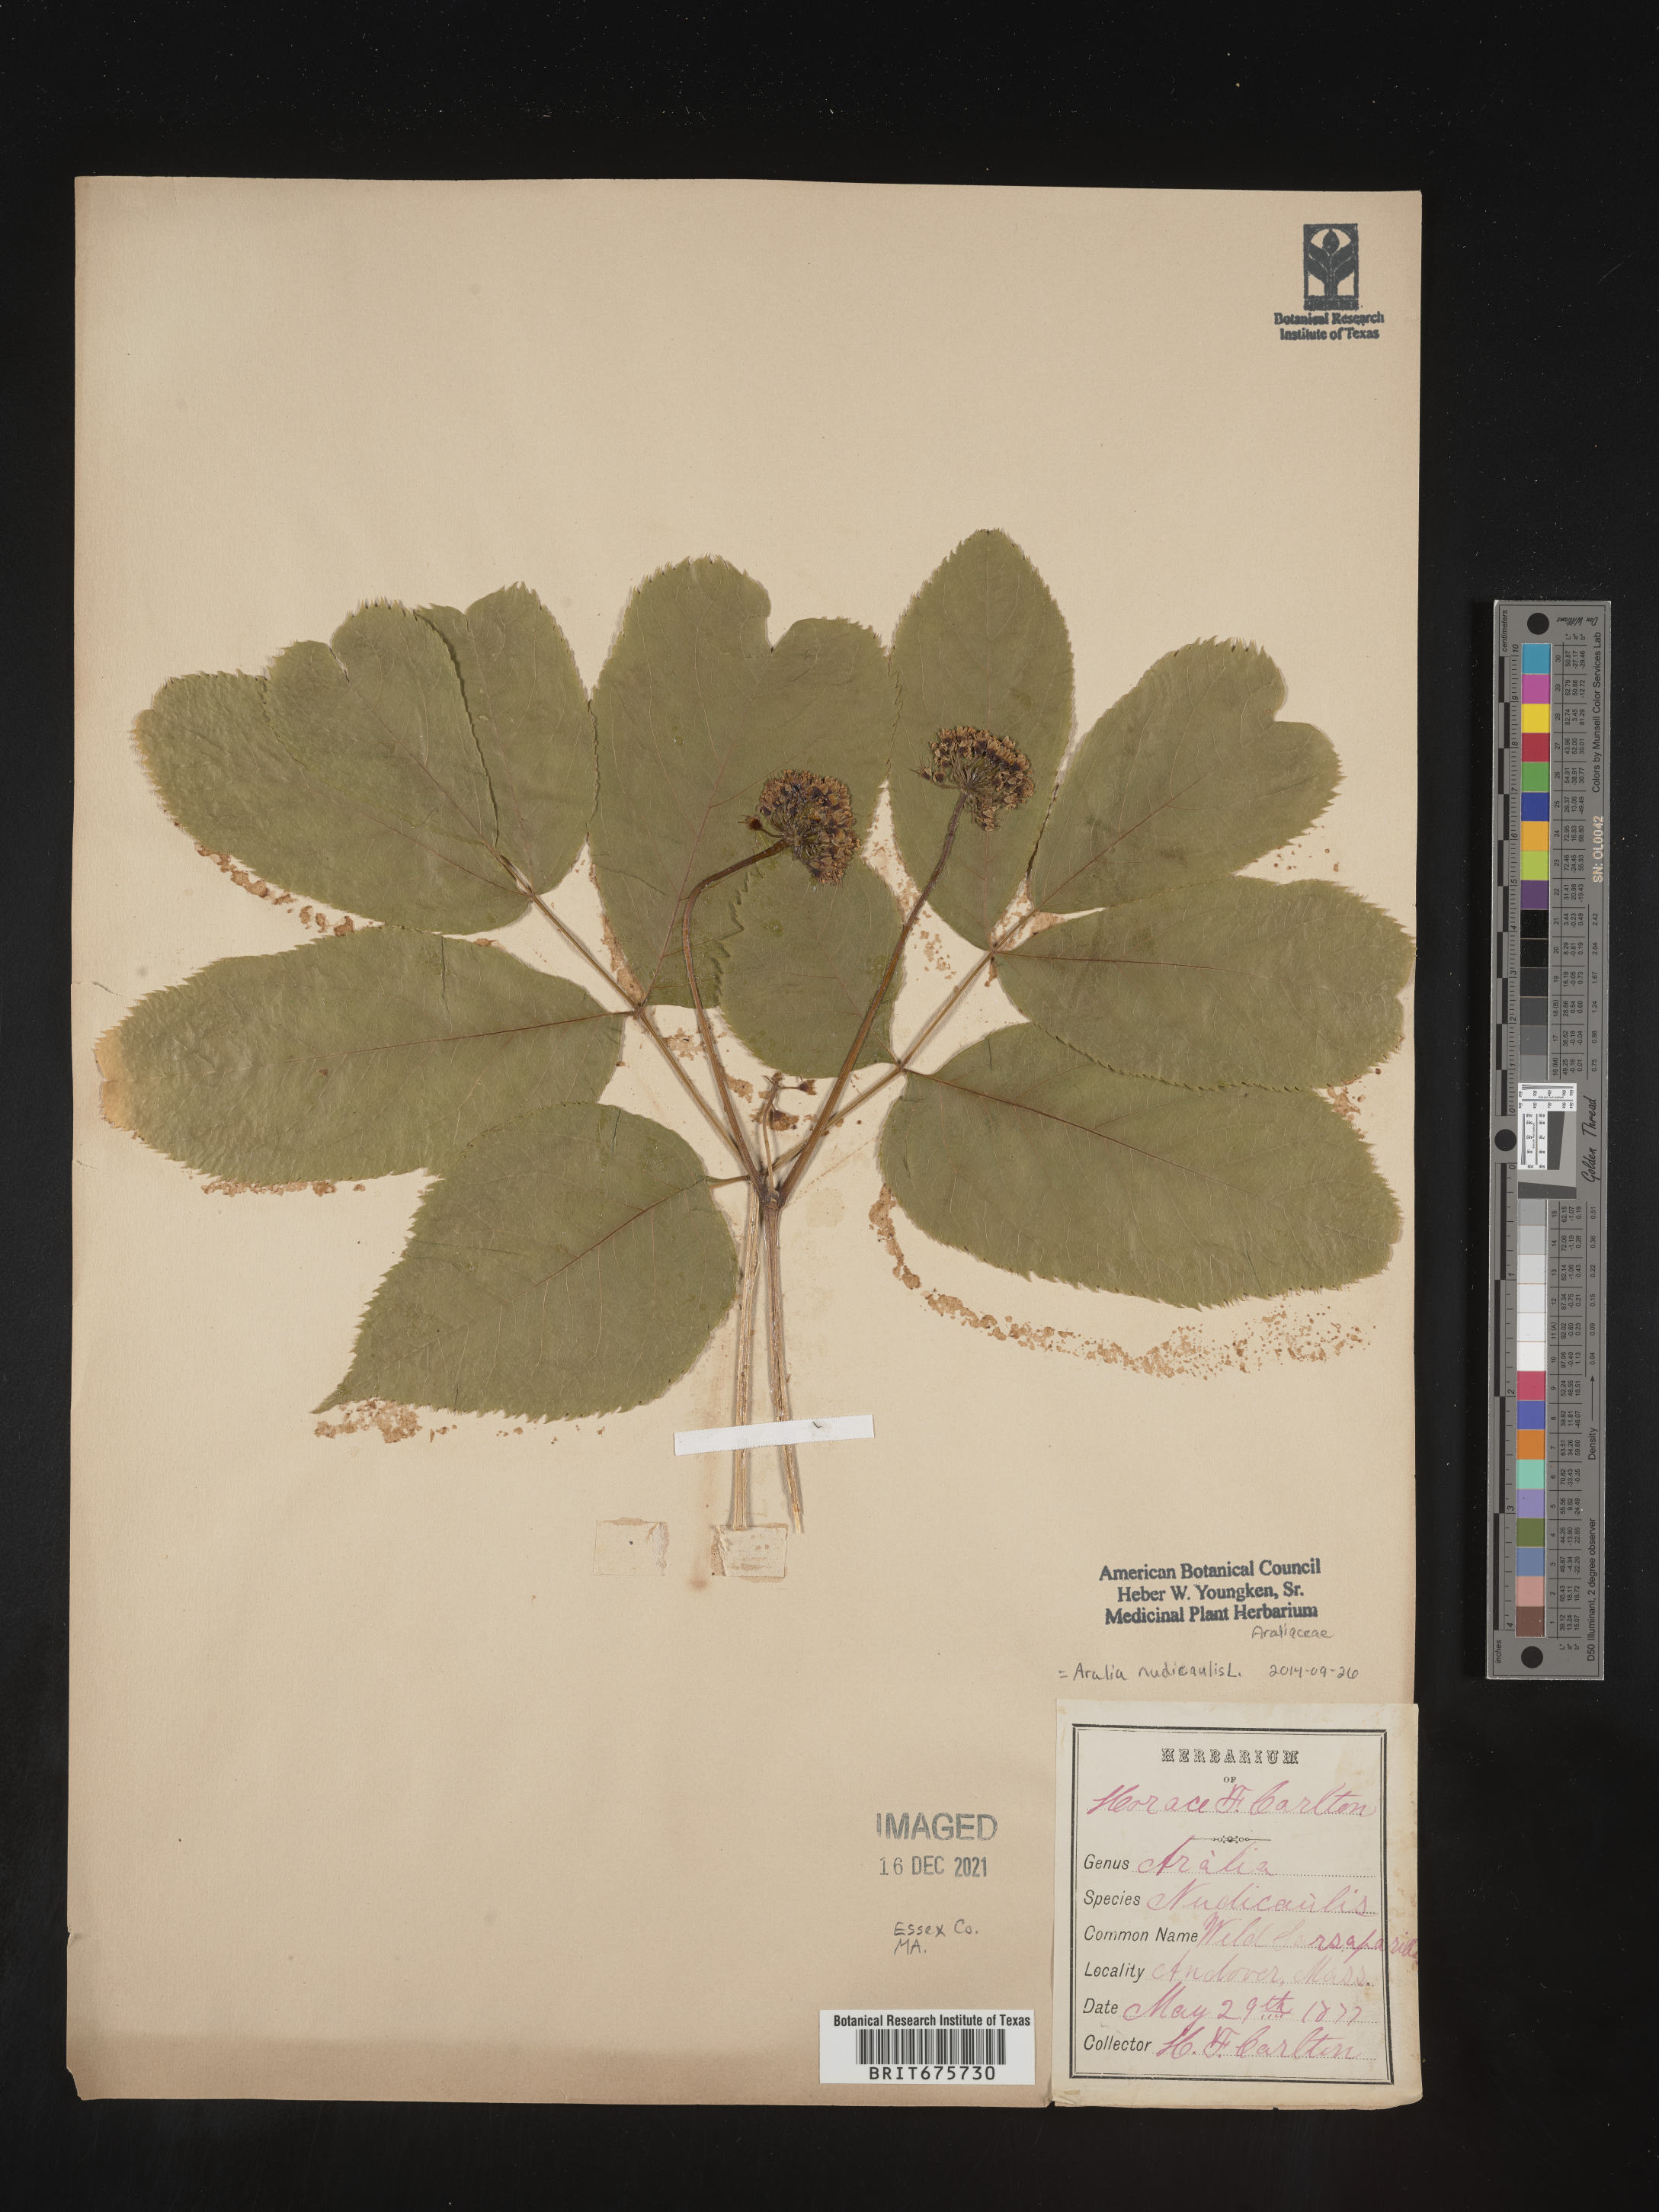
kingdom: Plantae
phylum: Tracheophyta
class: Magnoliopsida
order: Apiales
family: Araliaceae
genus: Aralia
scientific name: Aralia nudicaulis
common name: Wild sarsaparilla
